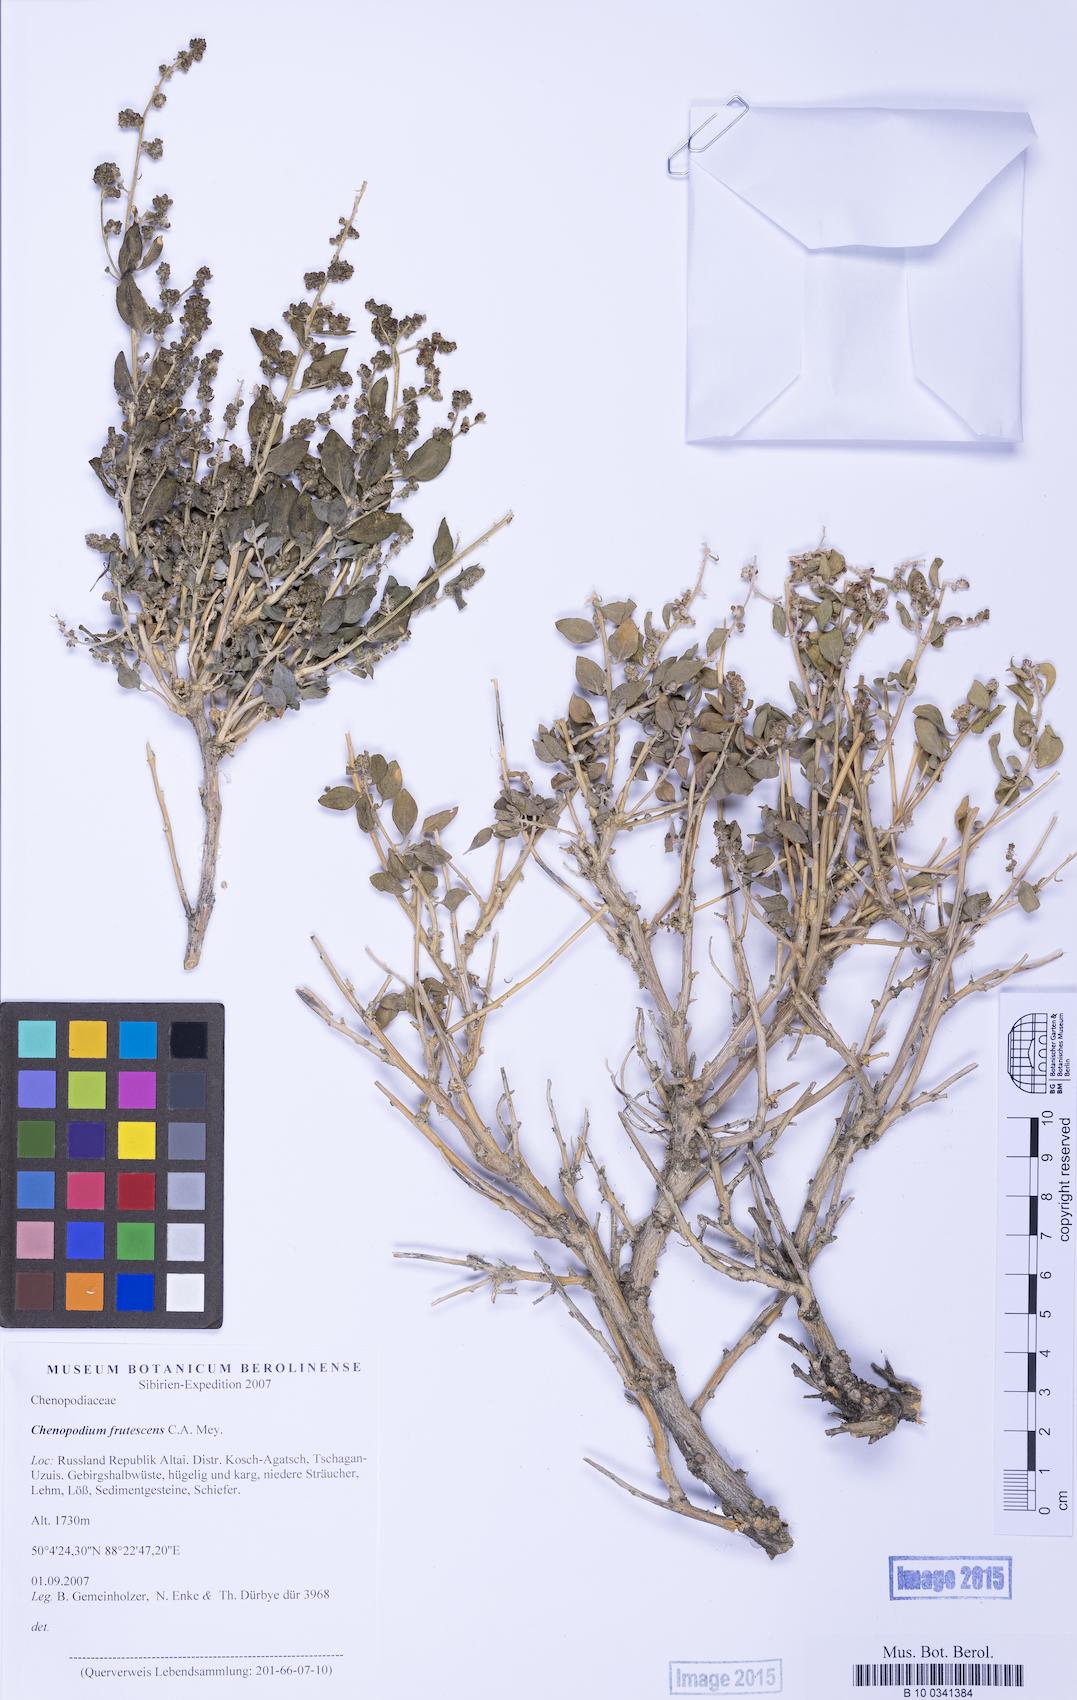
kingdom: Plantae
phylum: Tracheophyta
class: Magnoliopsida
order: Caryophyllales
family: Amaranthaceae
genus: Chenopodium
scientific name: Chenopodium frutescens
